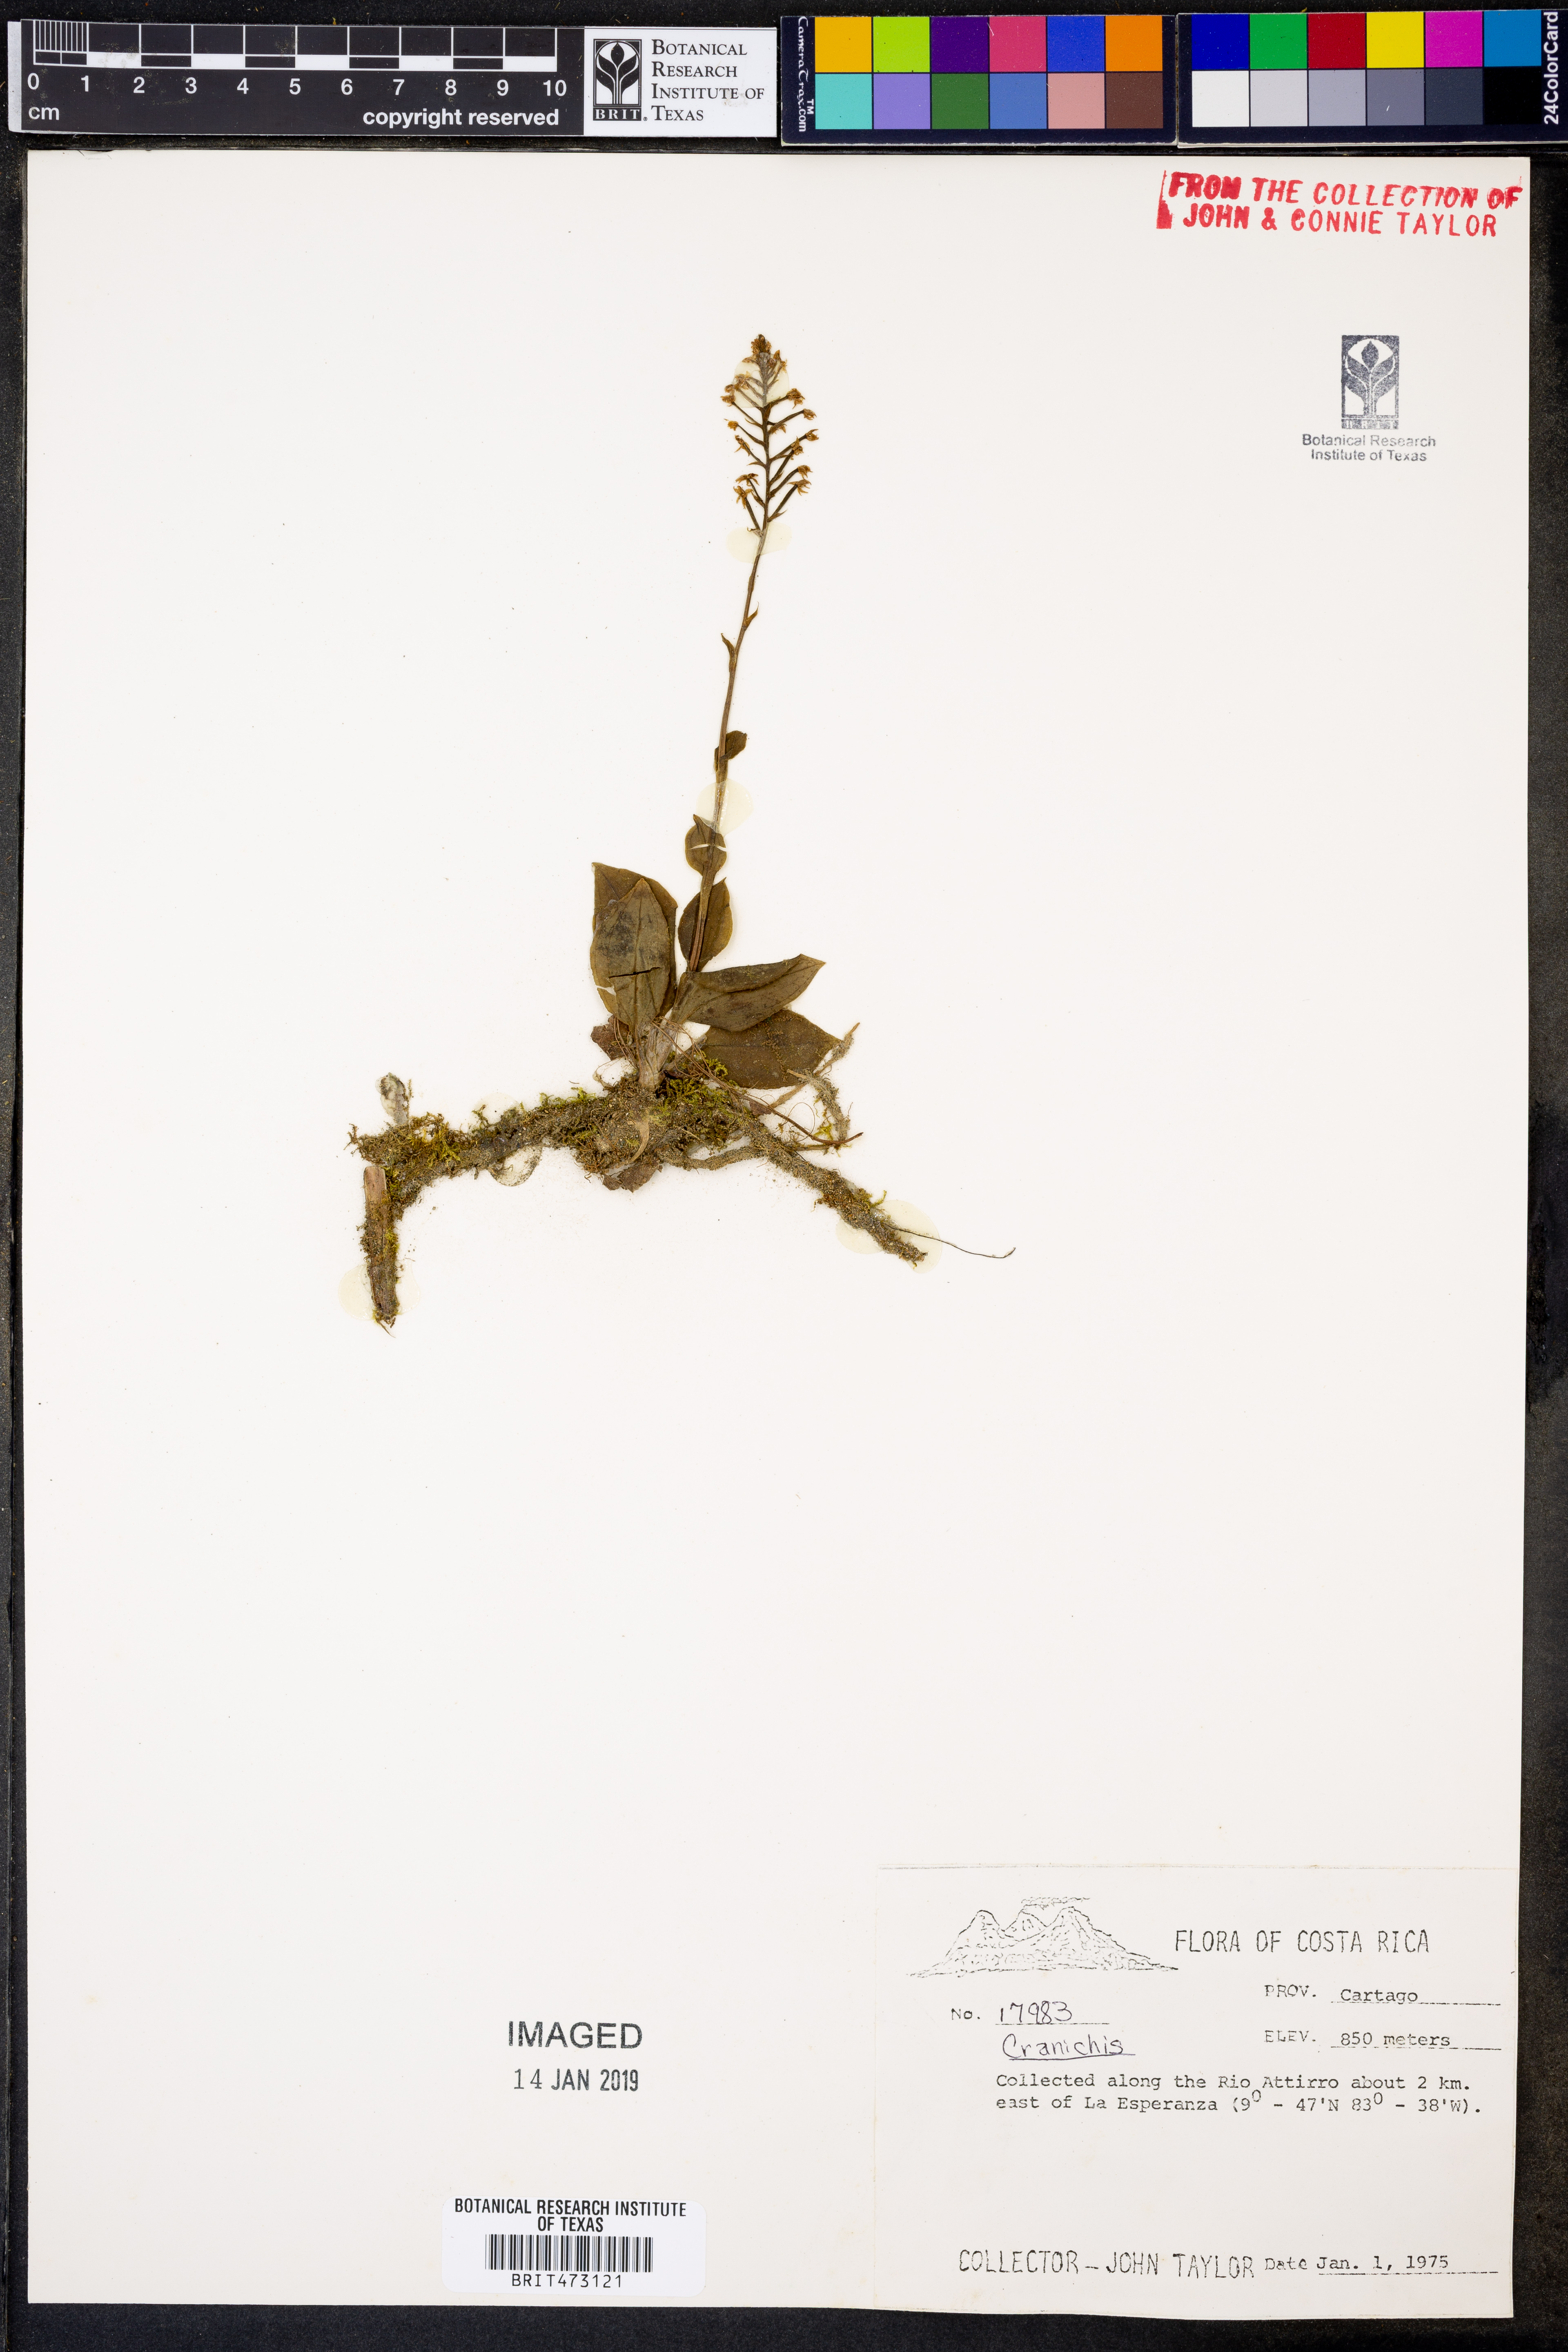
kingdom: Plantae
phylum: Tracheophyta
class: Liliopsida
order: Asparagales
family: Orchidaceae
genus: Cranichis
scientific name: Cranichis
